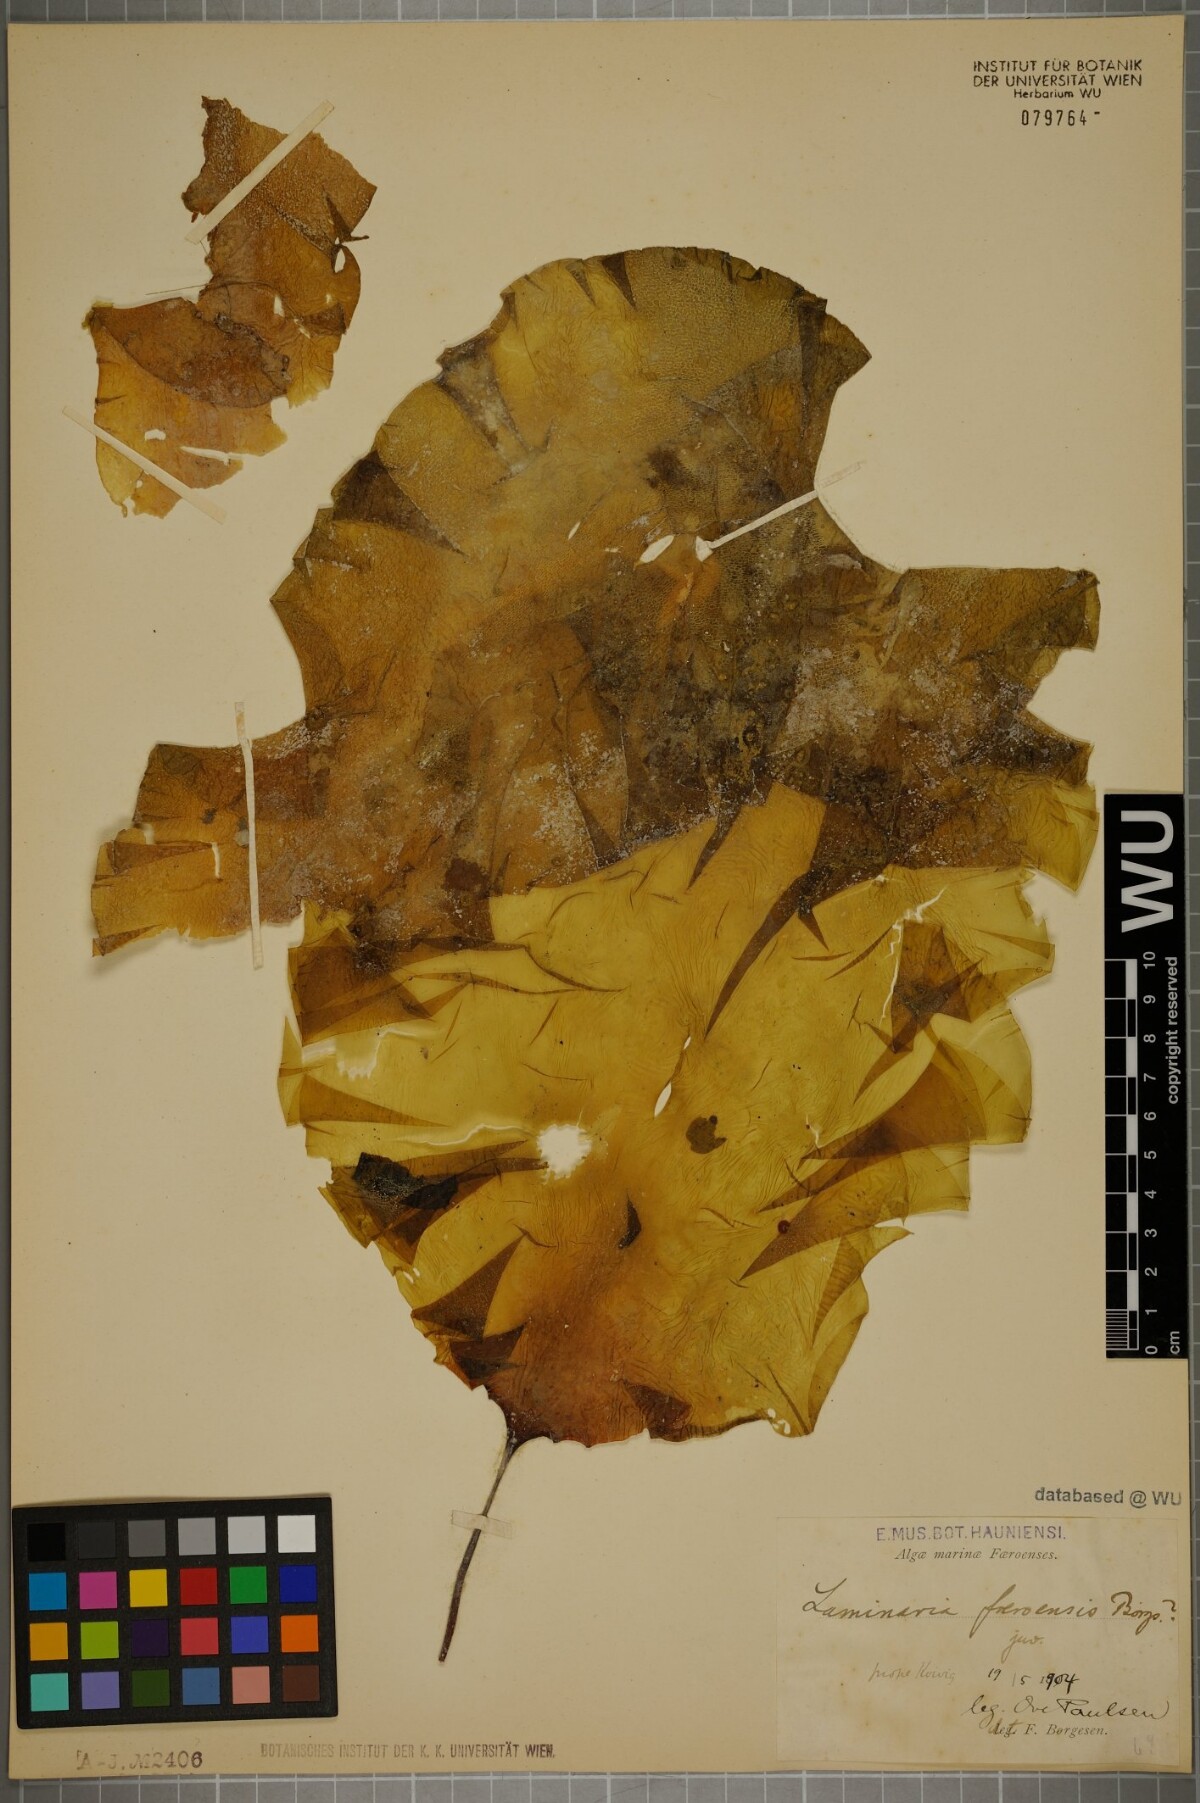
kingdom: Chromista
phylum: Ochrophyta
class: Phaeophyceae
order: Laminariales
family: Laminariaceae
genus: Saccharina
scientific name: Saccharina latissima
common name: Poor man's weather glass
